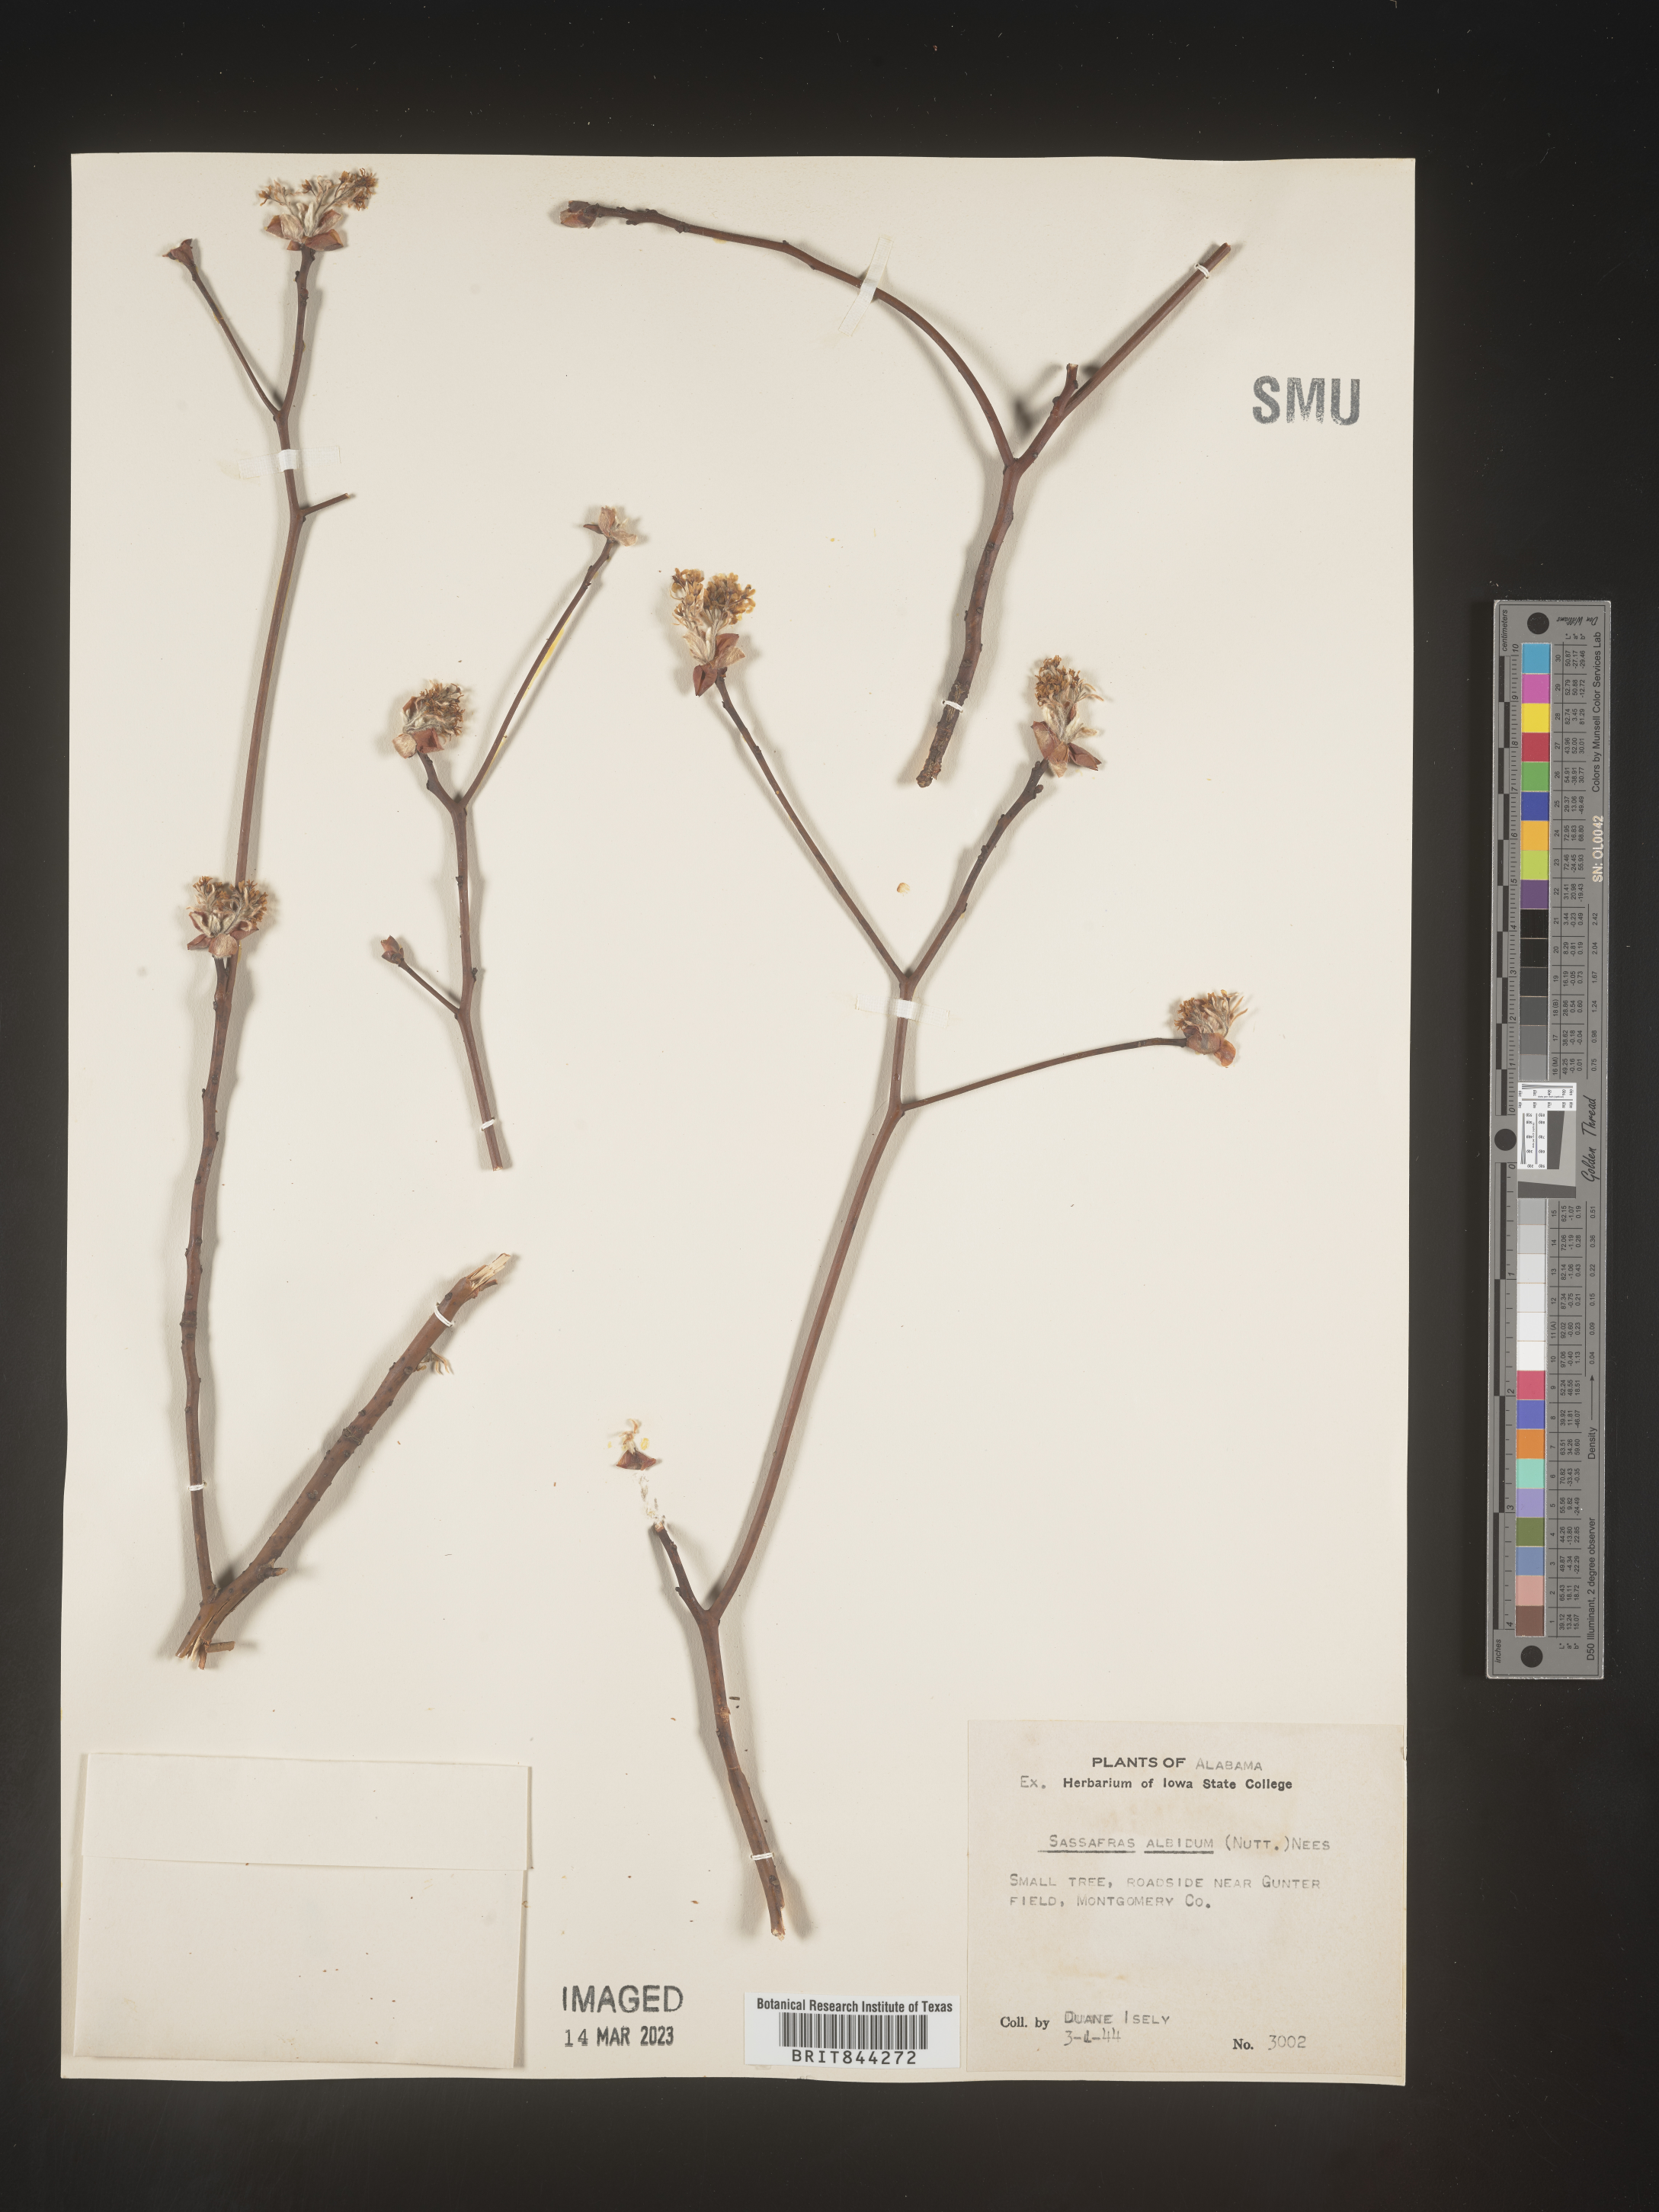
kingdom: Plantae
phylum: Tracheophyta
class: Magnoliopsida
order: Laurales
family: Lauraceae
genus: Sassafras
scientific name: Sassafras albidum
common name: Sassafras
